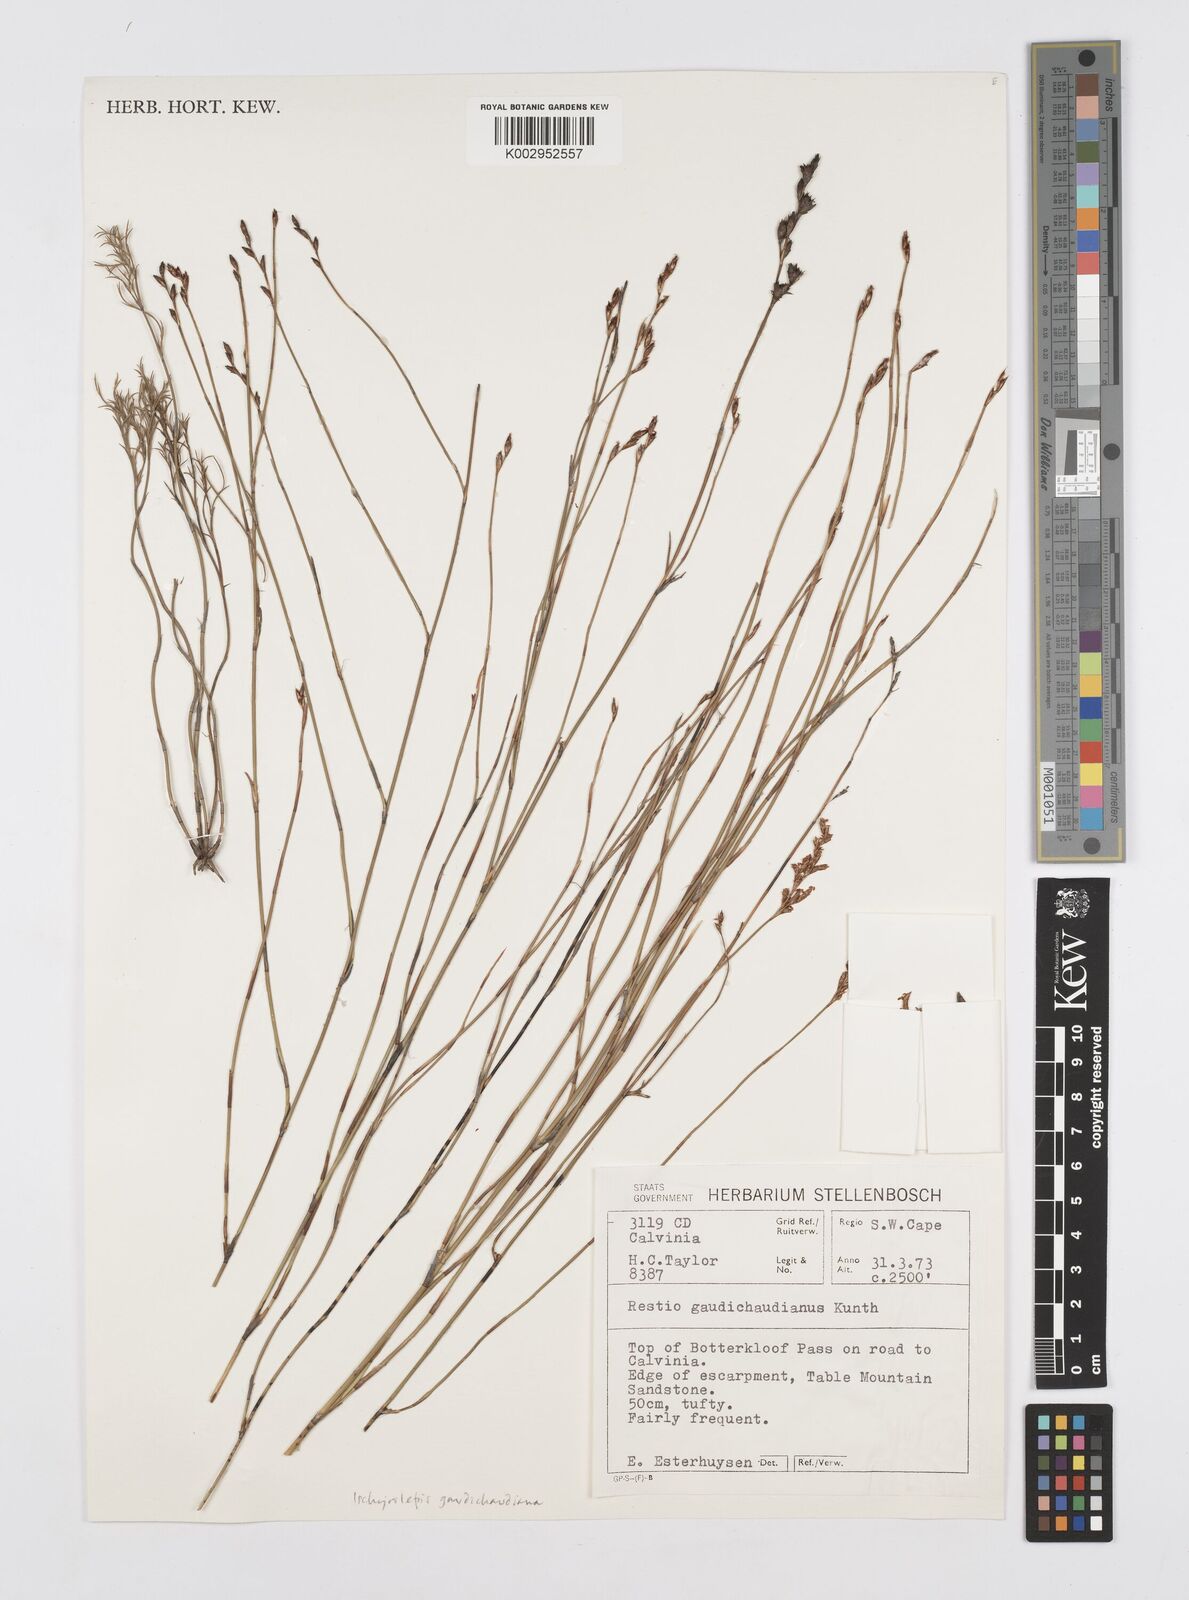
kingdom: Plantae
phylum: Tracheophyta
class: Liliopsida
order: Poales
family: Restionaceae
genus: Restio
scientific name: Restio gaudichaudianus
